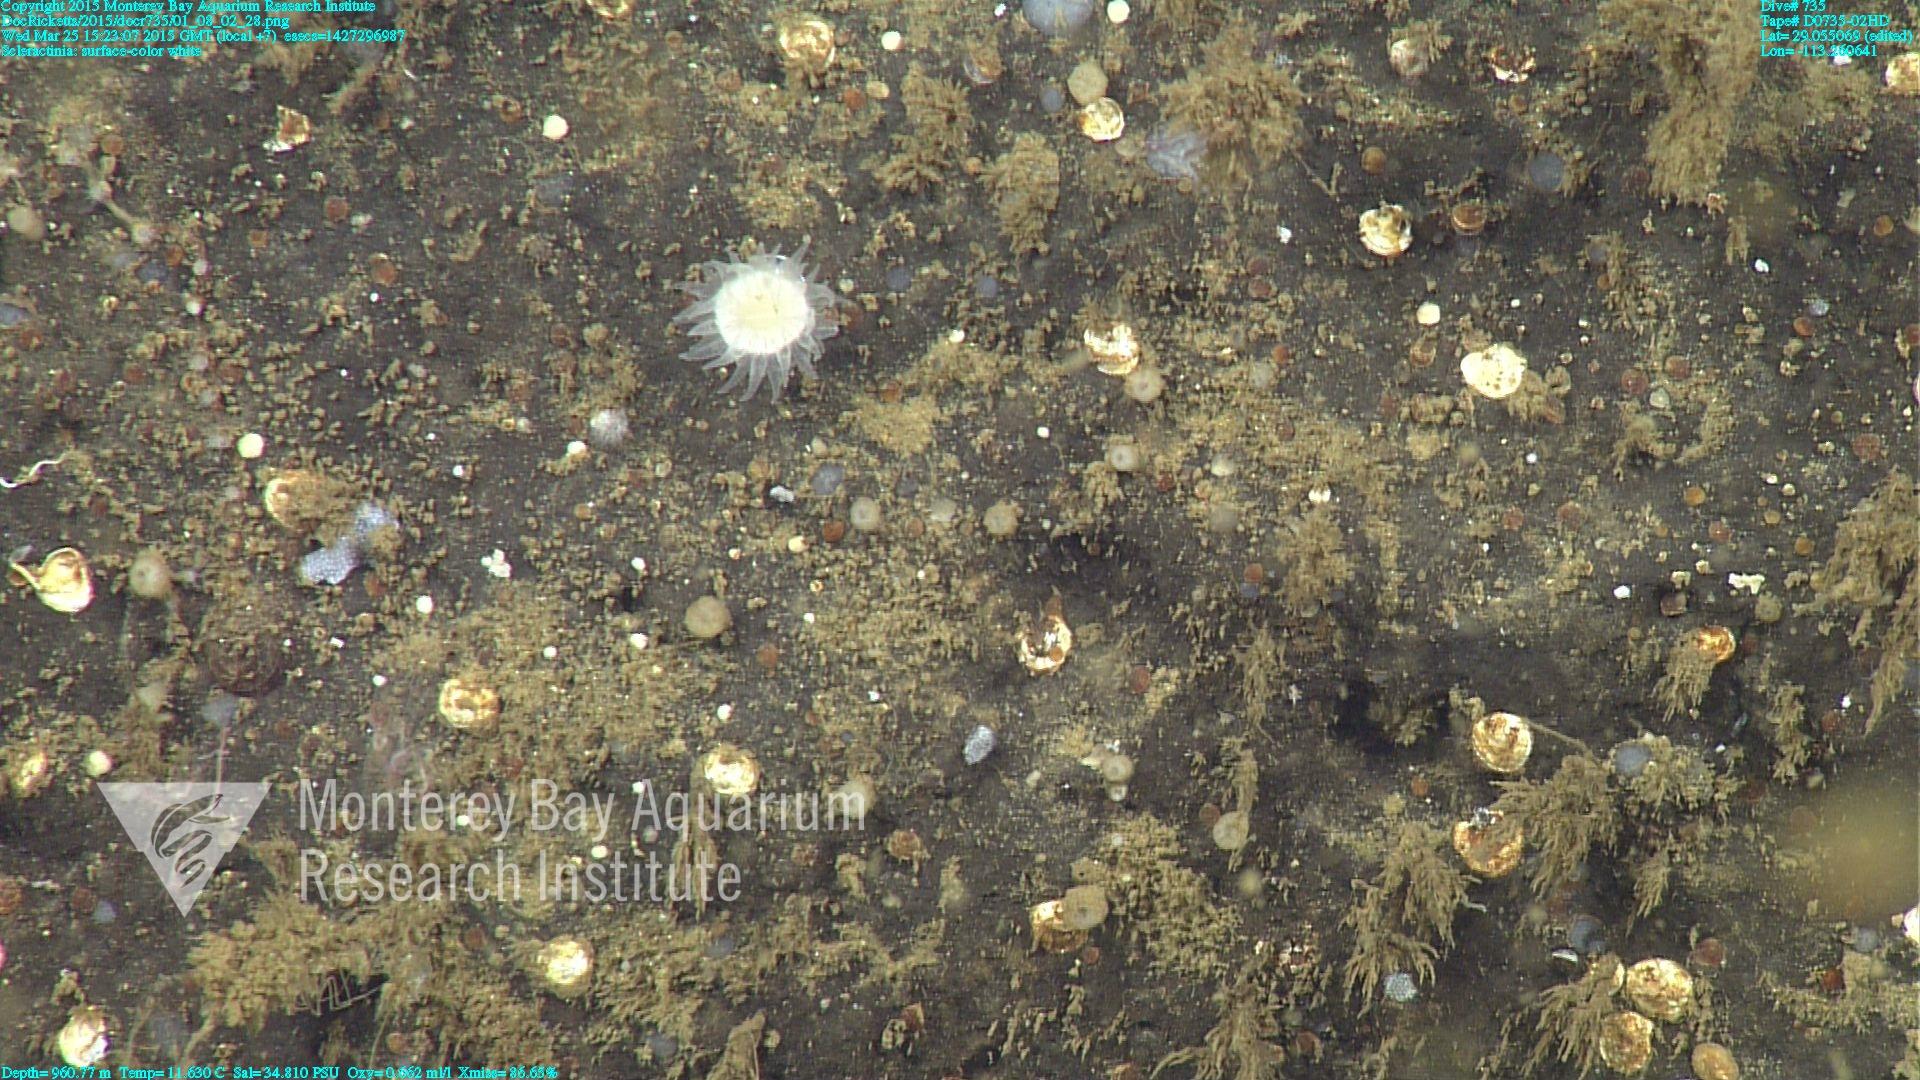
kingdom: Animalia
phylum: Cnidaria
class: Anthozoa
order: Scleractinia
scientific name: Scleractinia
